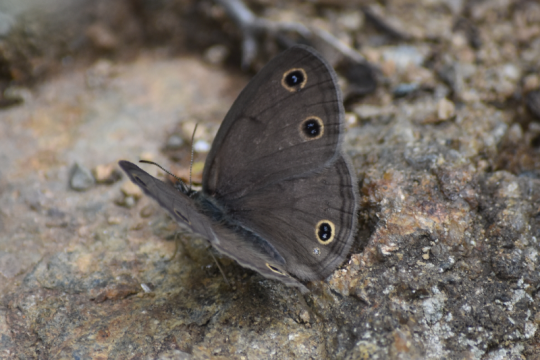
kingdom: Animalia
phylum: Arthropoda
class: Insecta
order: Lepidoptera
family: Nymphalidae
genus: Euptychia
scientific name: Euptychia cymela
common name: Little Wood Satyr
